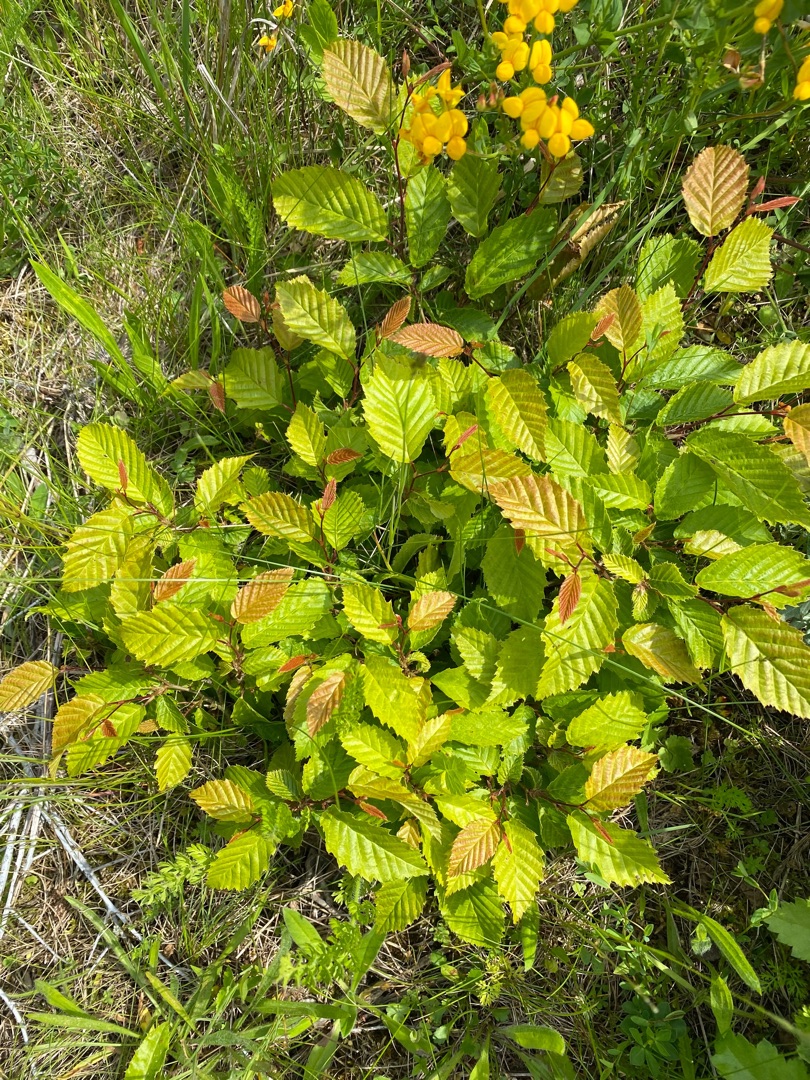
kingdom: Plantae
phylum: Tracheophyta
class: Magnoliopsida
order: Fagales
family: Betulaceae
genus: Carpinus
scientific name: Carpinus betulus
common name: Avnbøg
